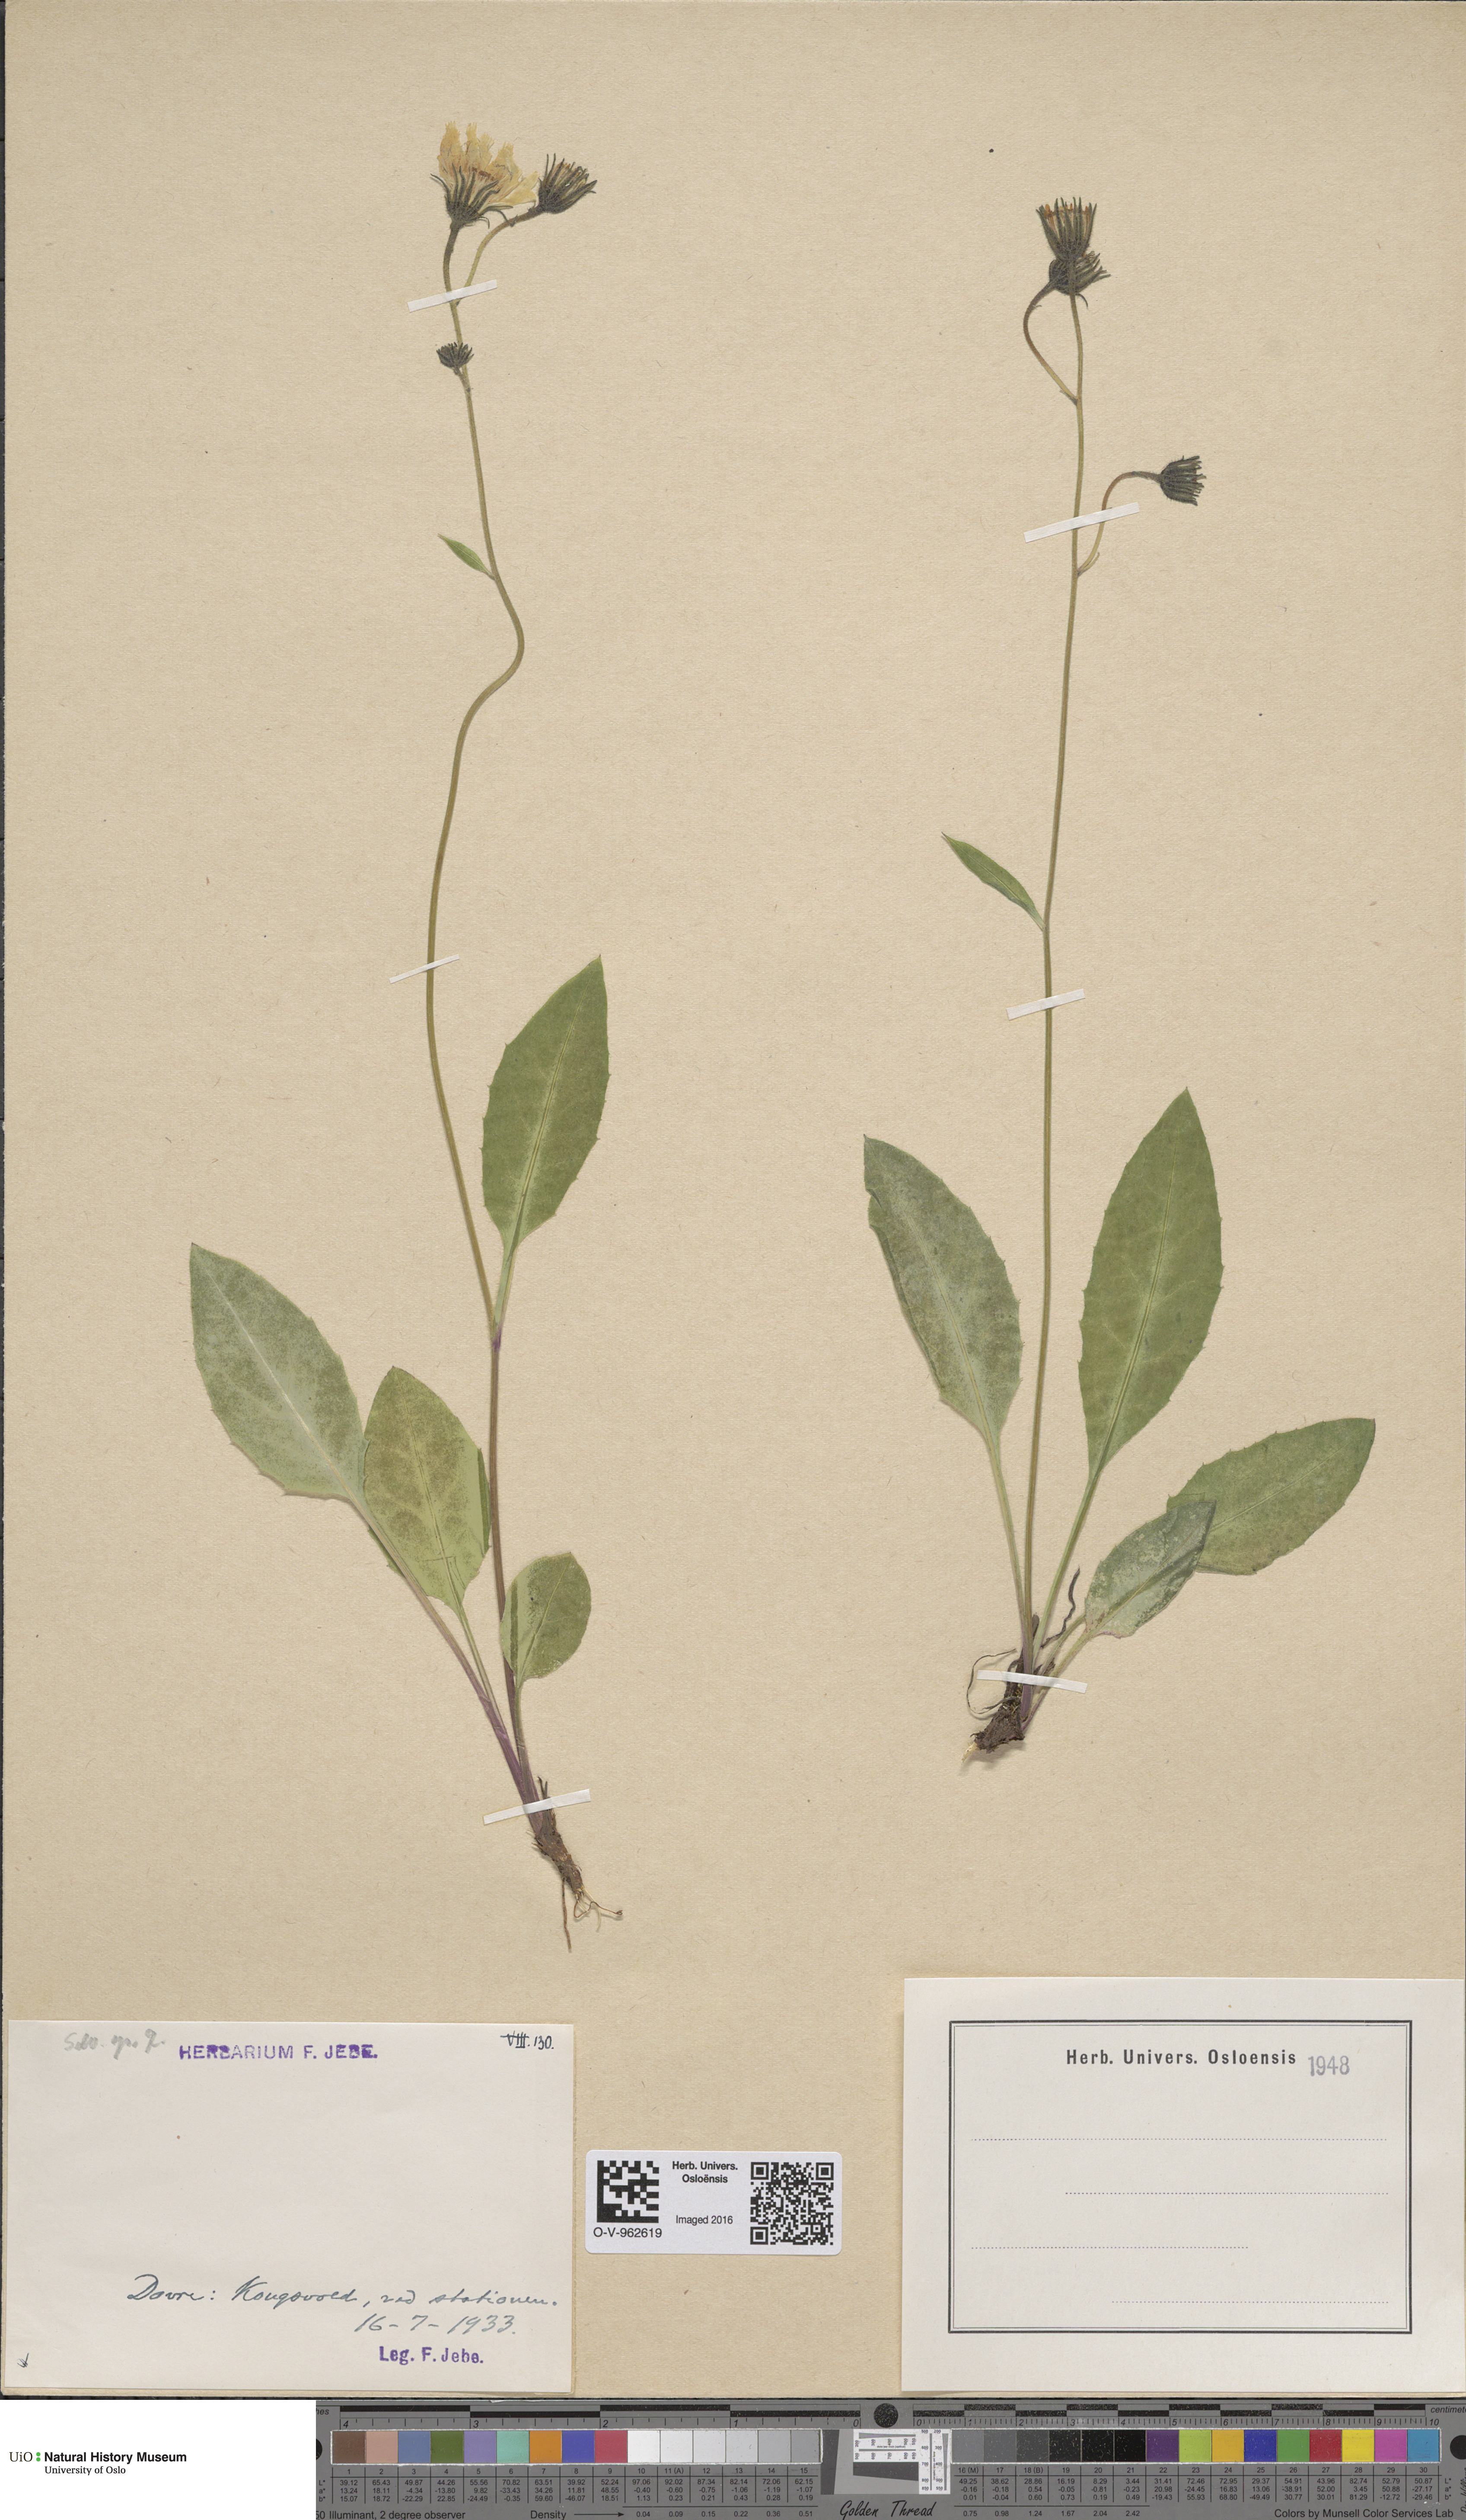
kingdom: Plantae
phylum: Tracheophyta
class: Magnoliopsida
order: Asterales
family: Asteraceae
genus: Hieracium
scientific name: Hieracium
